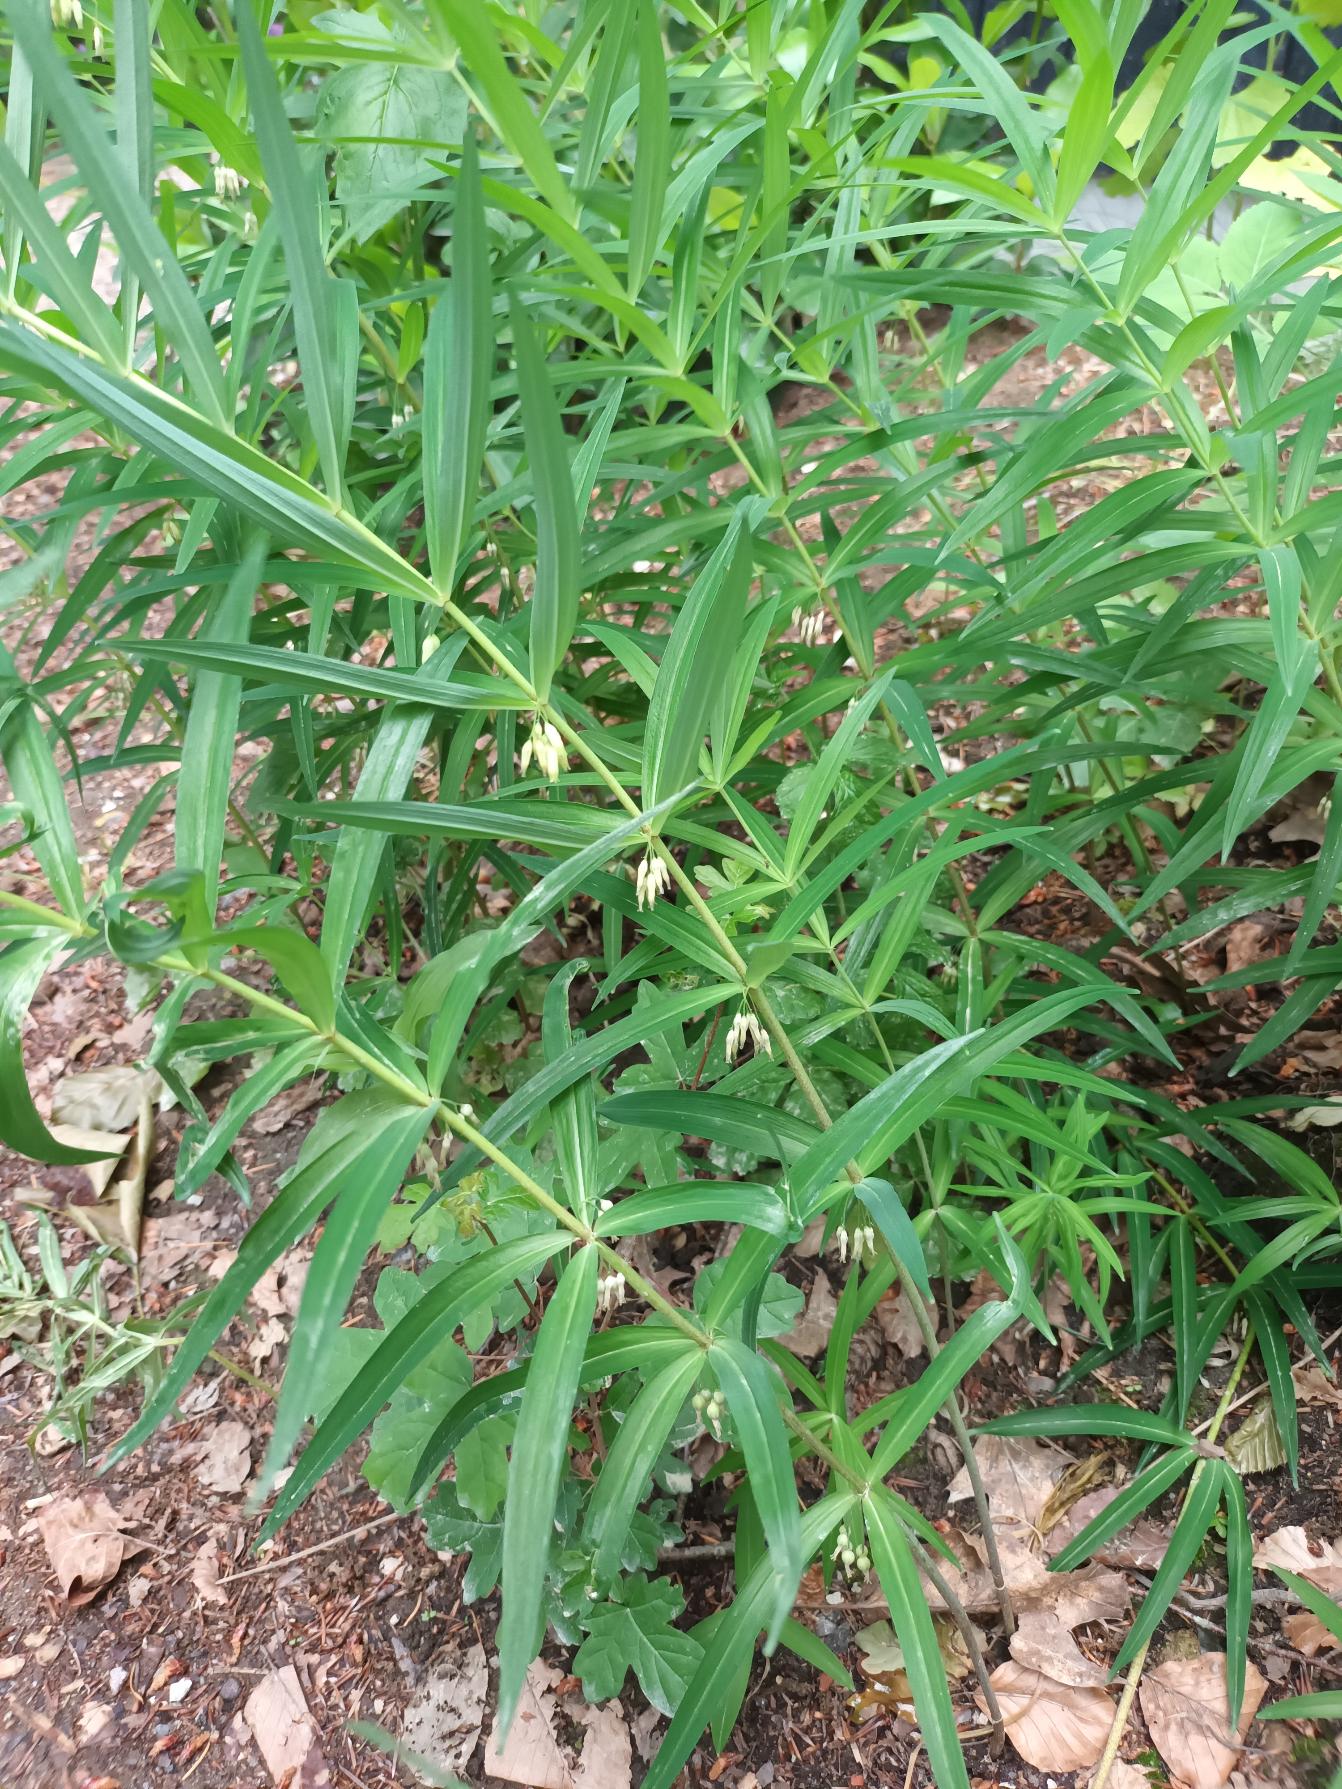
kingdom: Plantae
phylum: Tracheophyta
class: Liliopsida
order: Asparagales
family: Asparagaceae
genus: Polygonatum
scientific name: Polygonatum verticillatum
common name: Krans-konval
